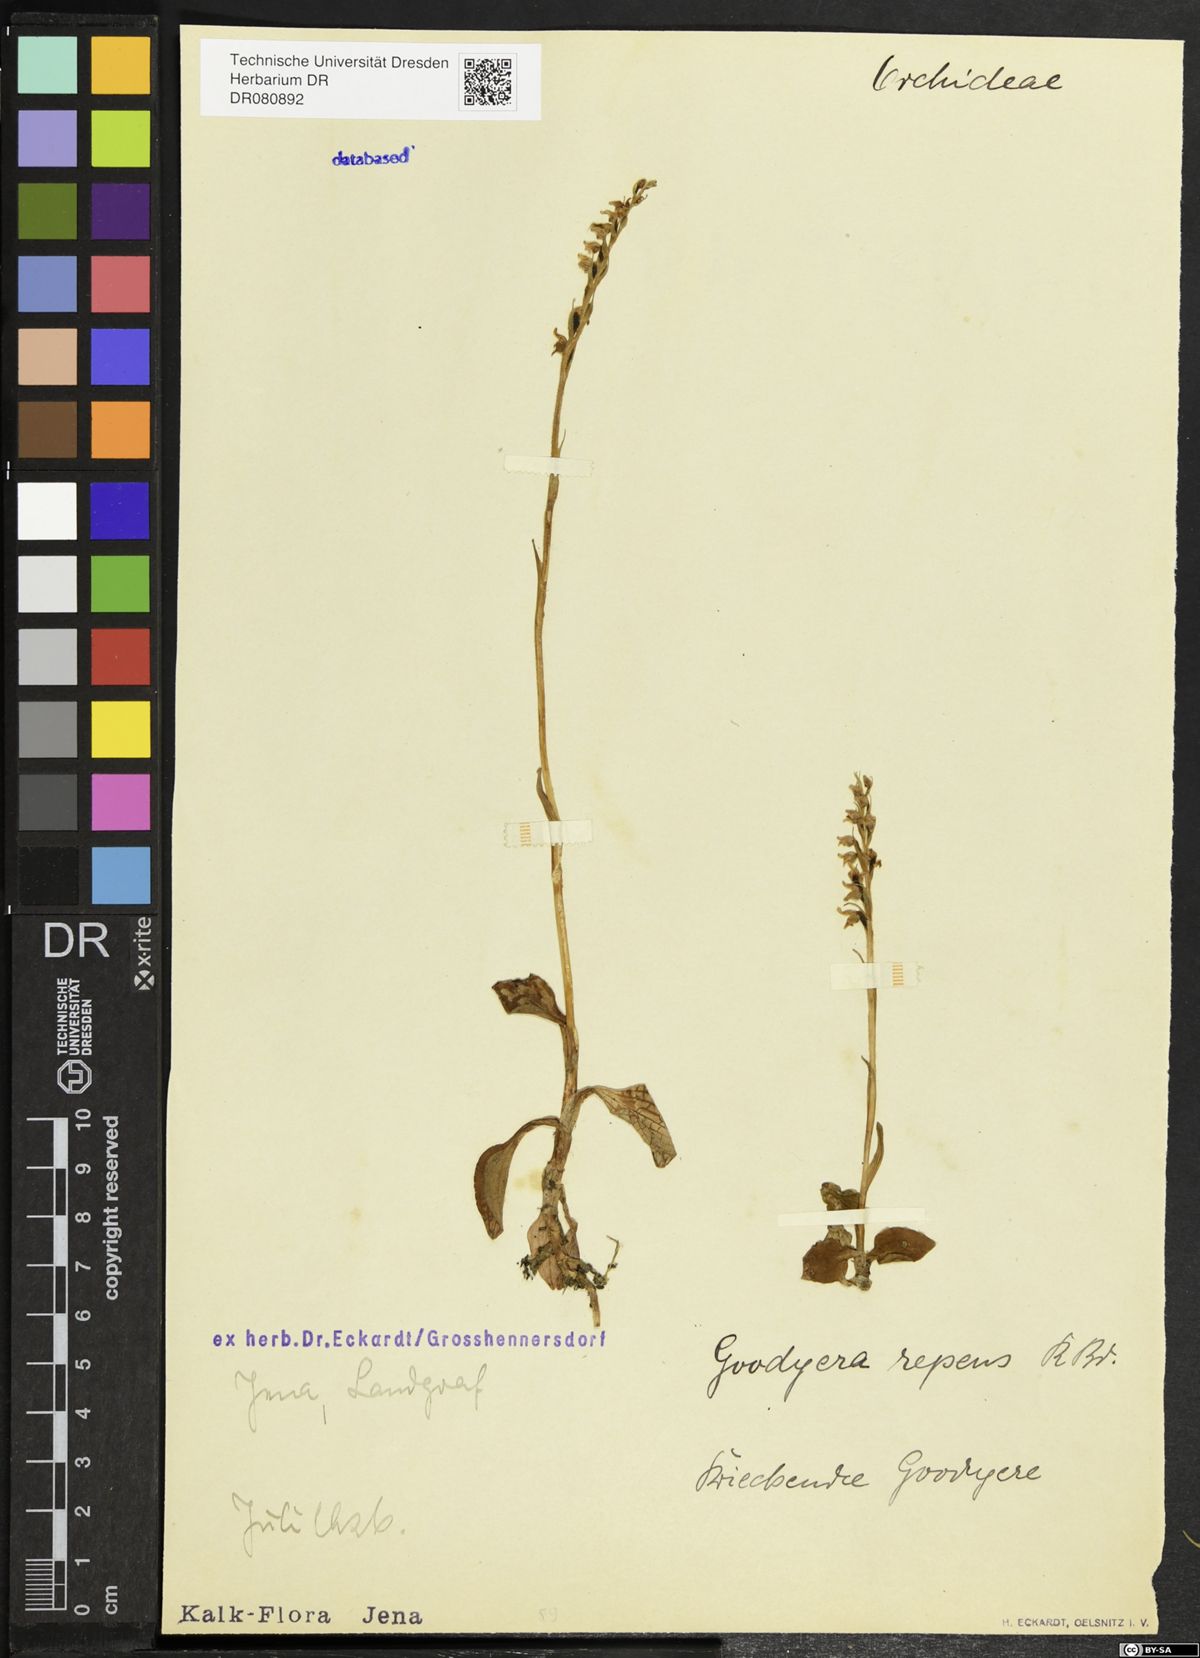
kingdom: Plantae
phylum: Tracheophyta
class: Liliopsida
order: Asparagales
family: Orchidaceae
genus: Goodyera
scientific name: Goodyera repens
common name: Creeping lady's-tresses
